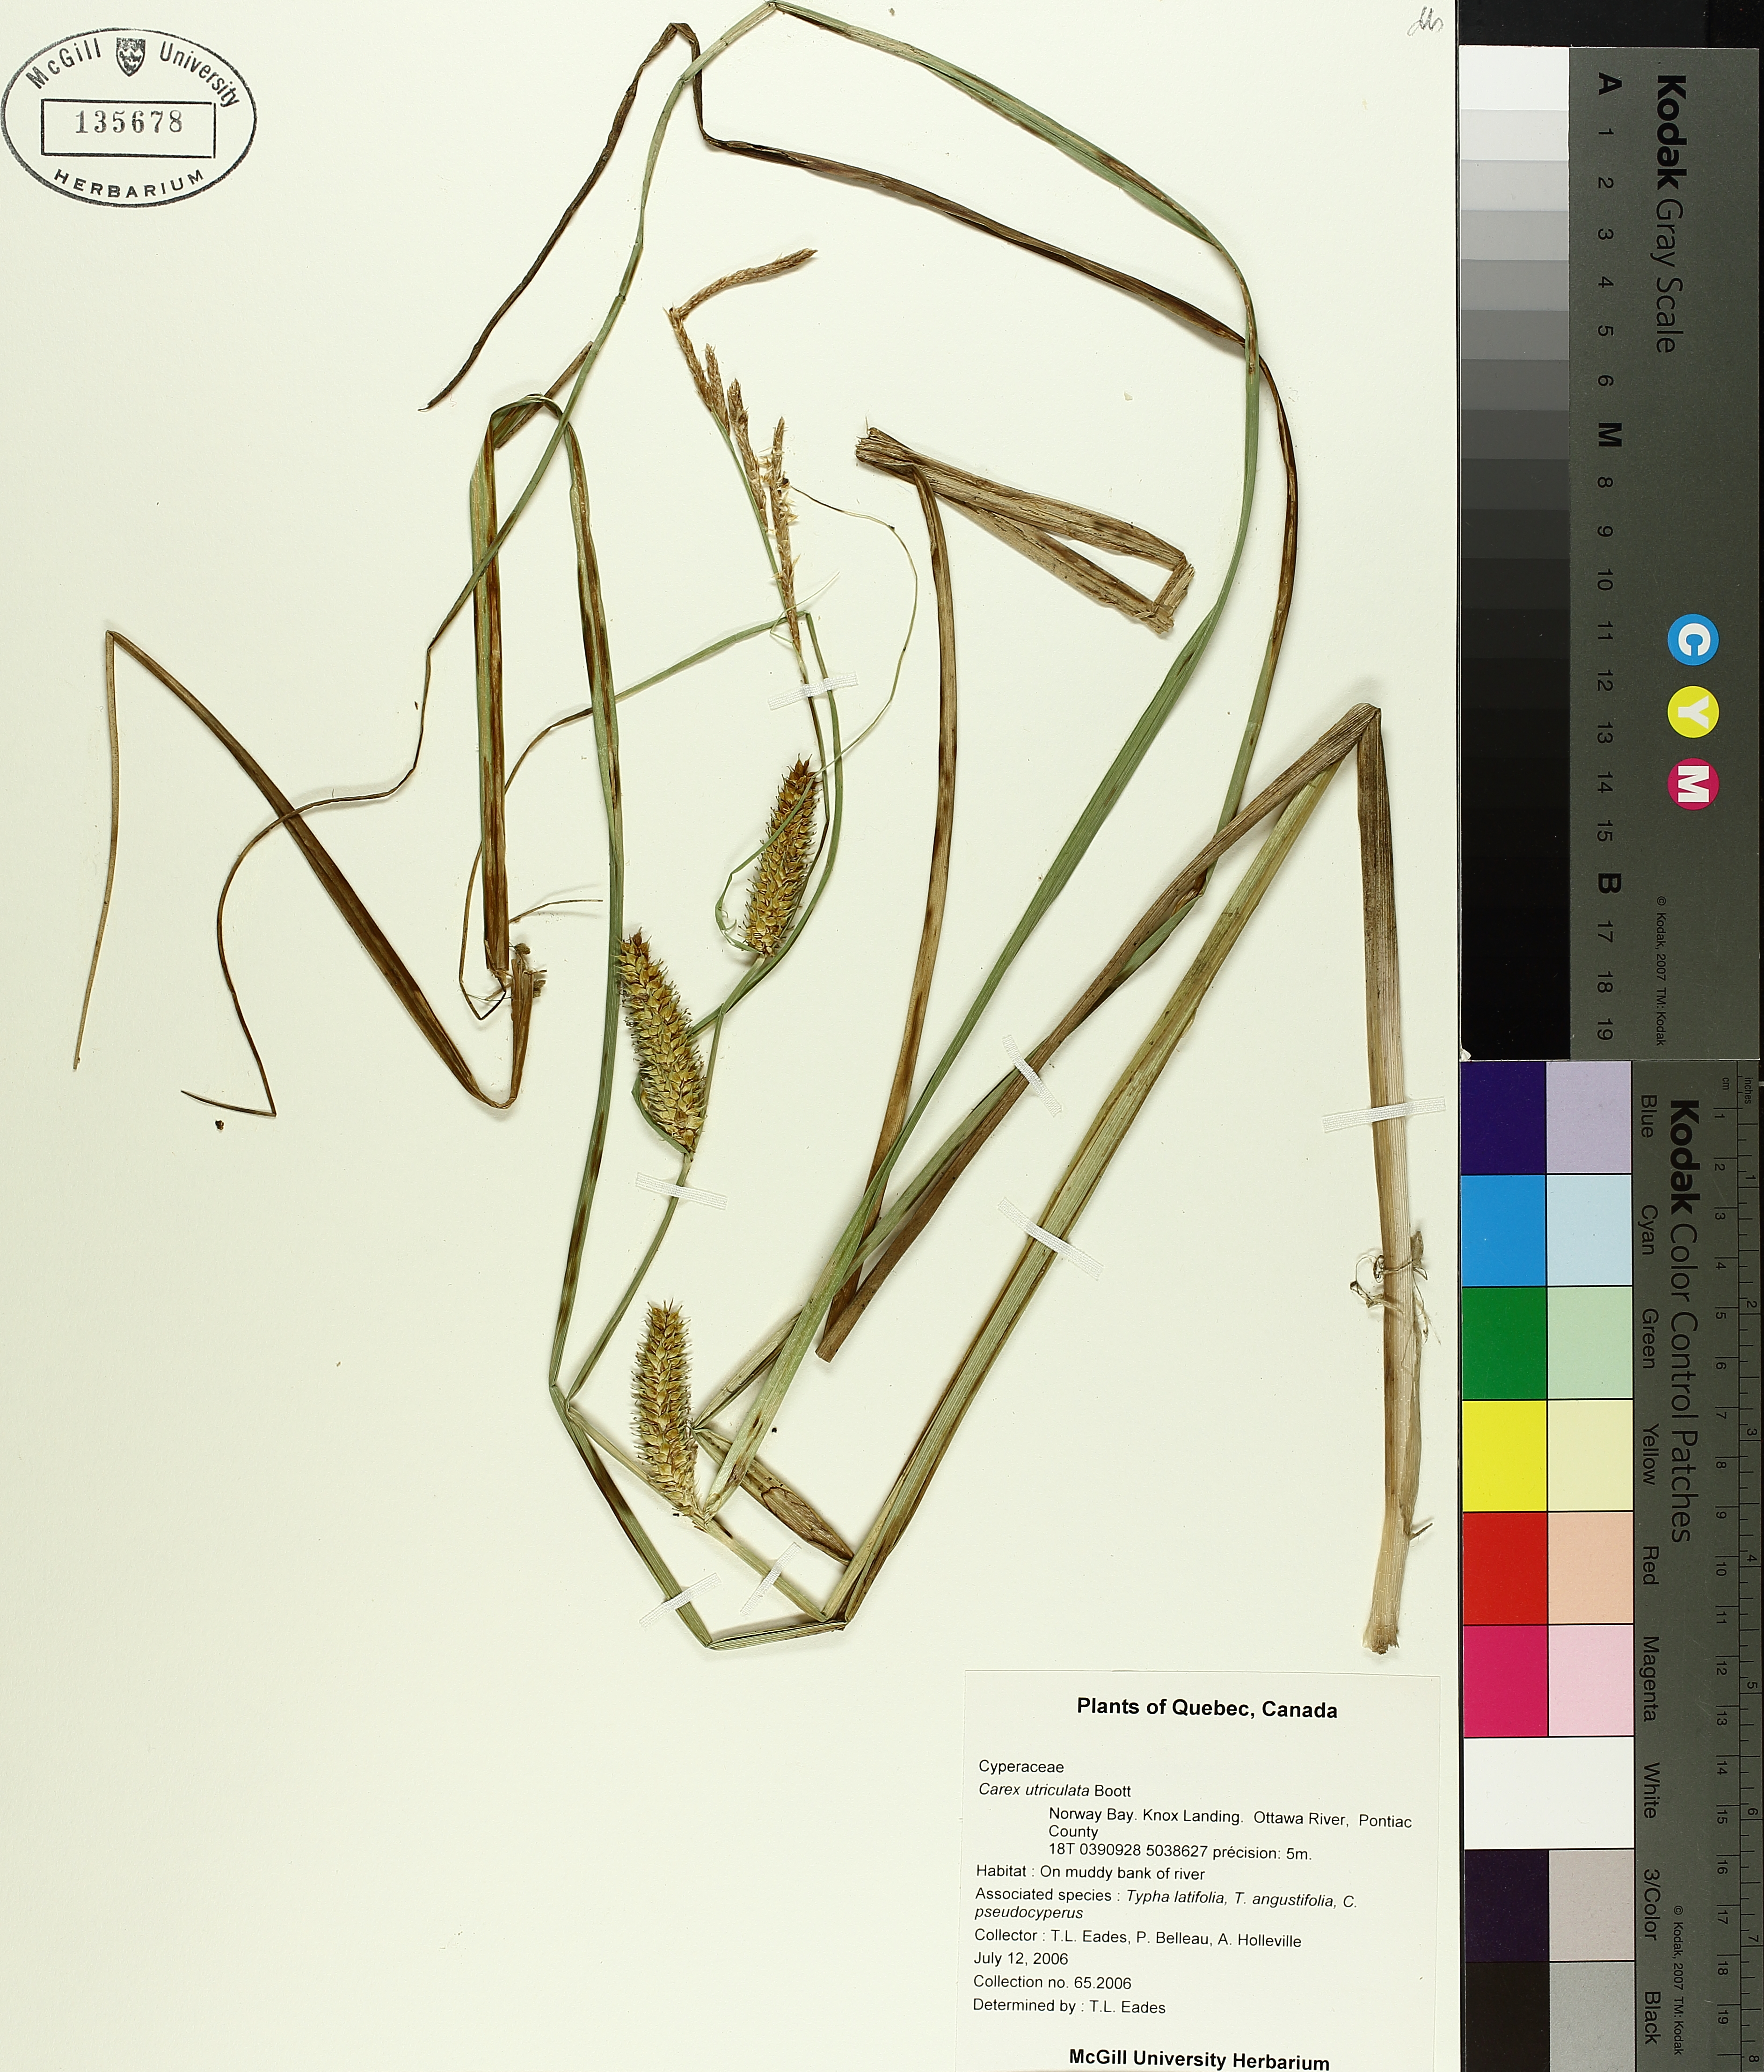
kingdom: Plantae
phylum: Tracheophyta
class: Liliopsida
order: Poales
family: Cyperaceae
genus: Carex
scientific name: Carex utriculata
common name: Beaked sedge
